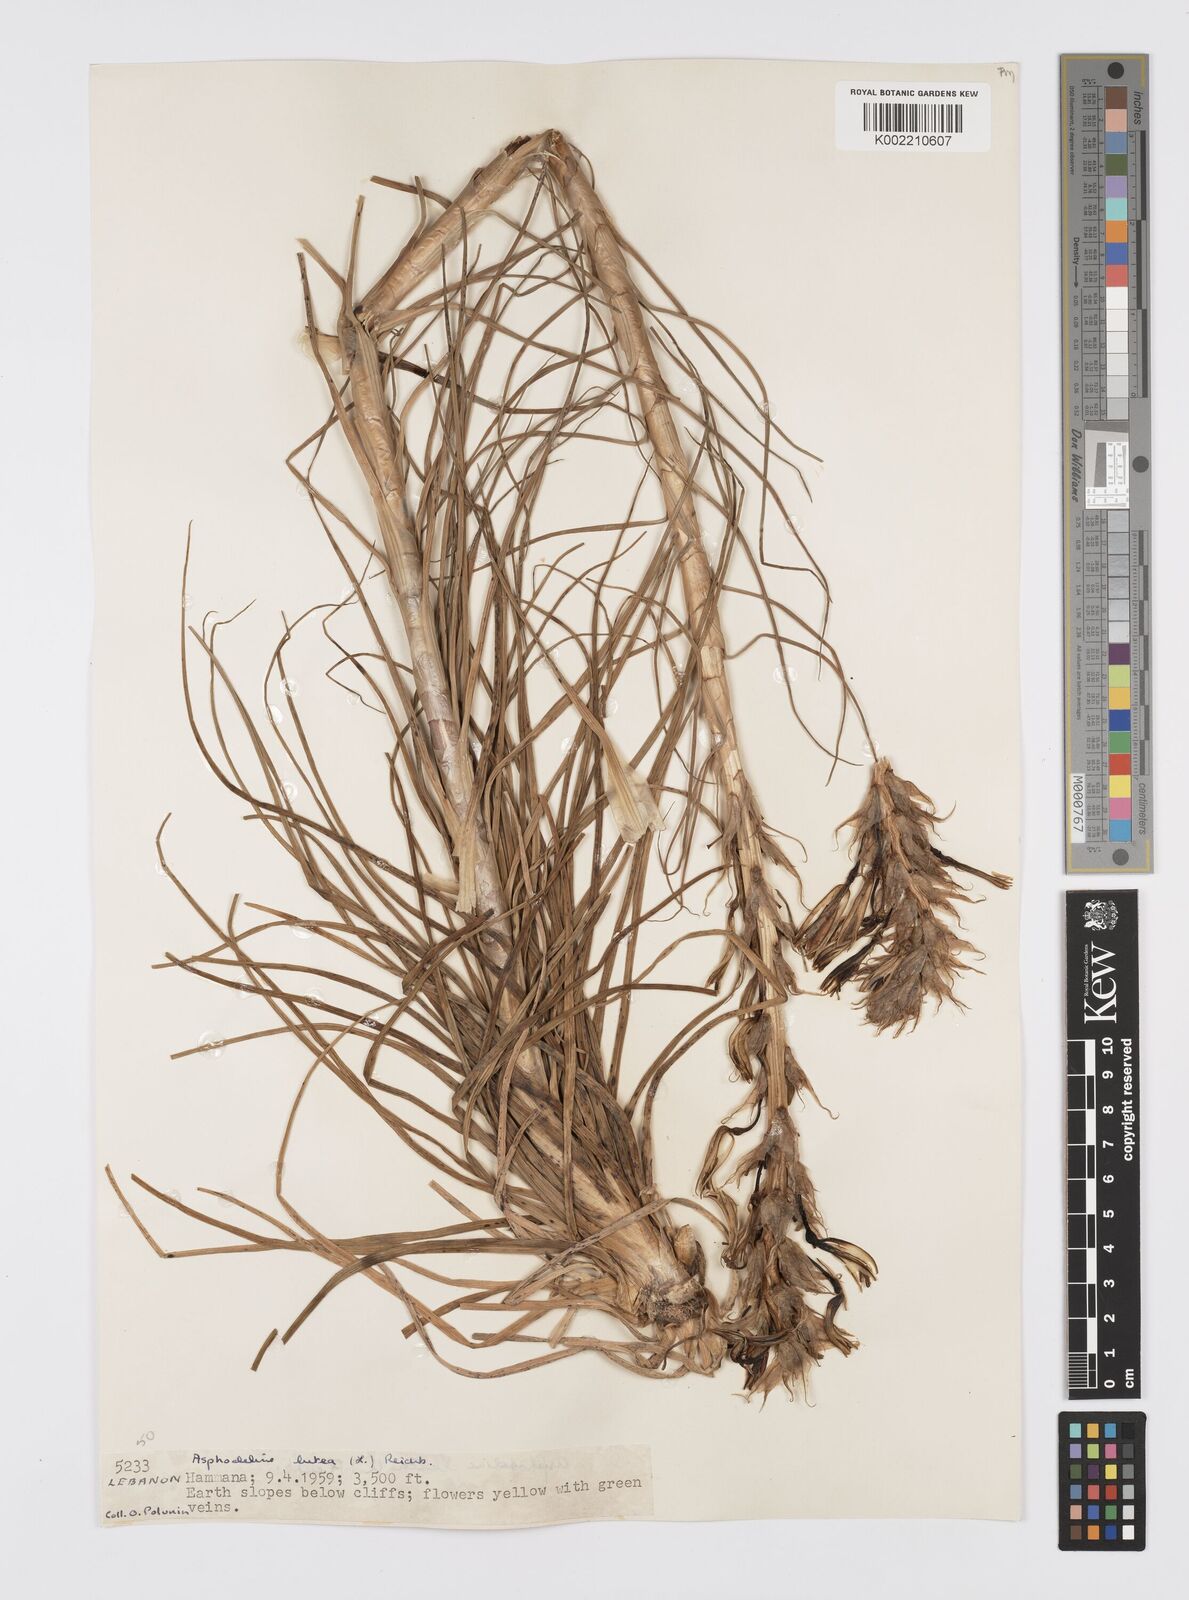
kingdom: Plantae
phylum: Tracheophyta
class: Liliopsida
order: Asparagales
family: Asphodelaceae
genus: Asphodeline
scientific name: Asphodeline lutea
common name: Yellow asphodel
